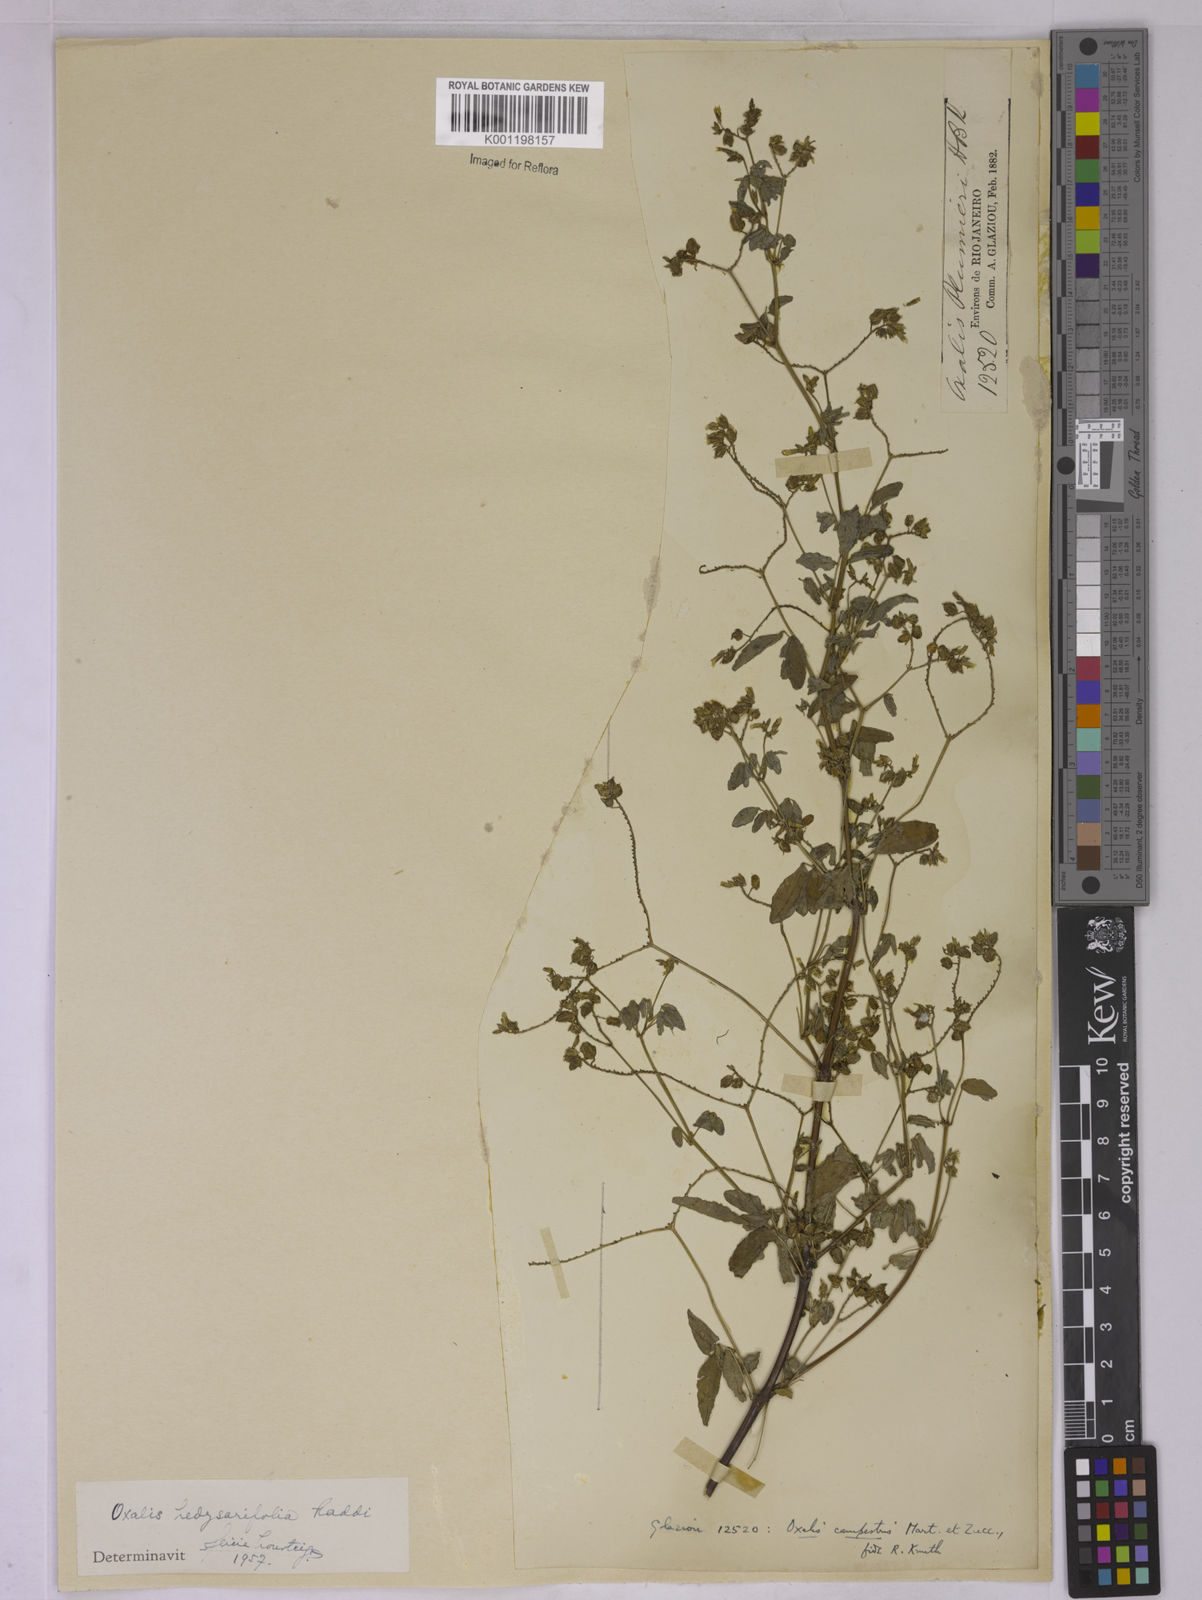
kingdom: Plantae
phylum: Tracheophyta
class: Magnoliopsida
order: Oxalidales
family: Oxalidaceae
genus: Oxalis
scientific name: Oxalis frutescens
